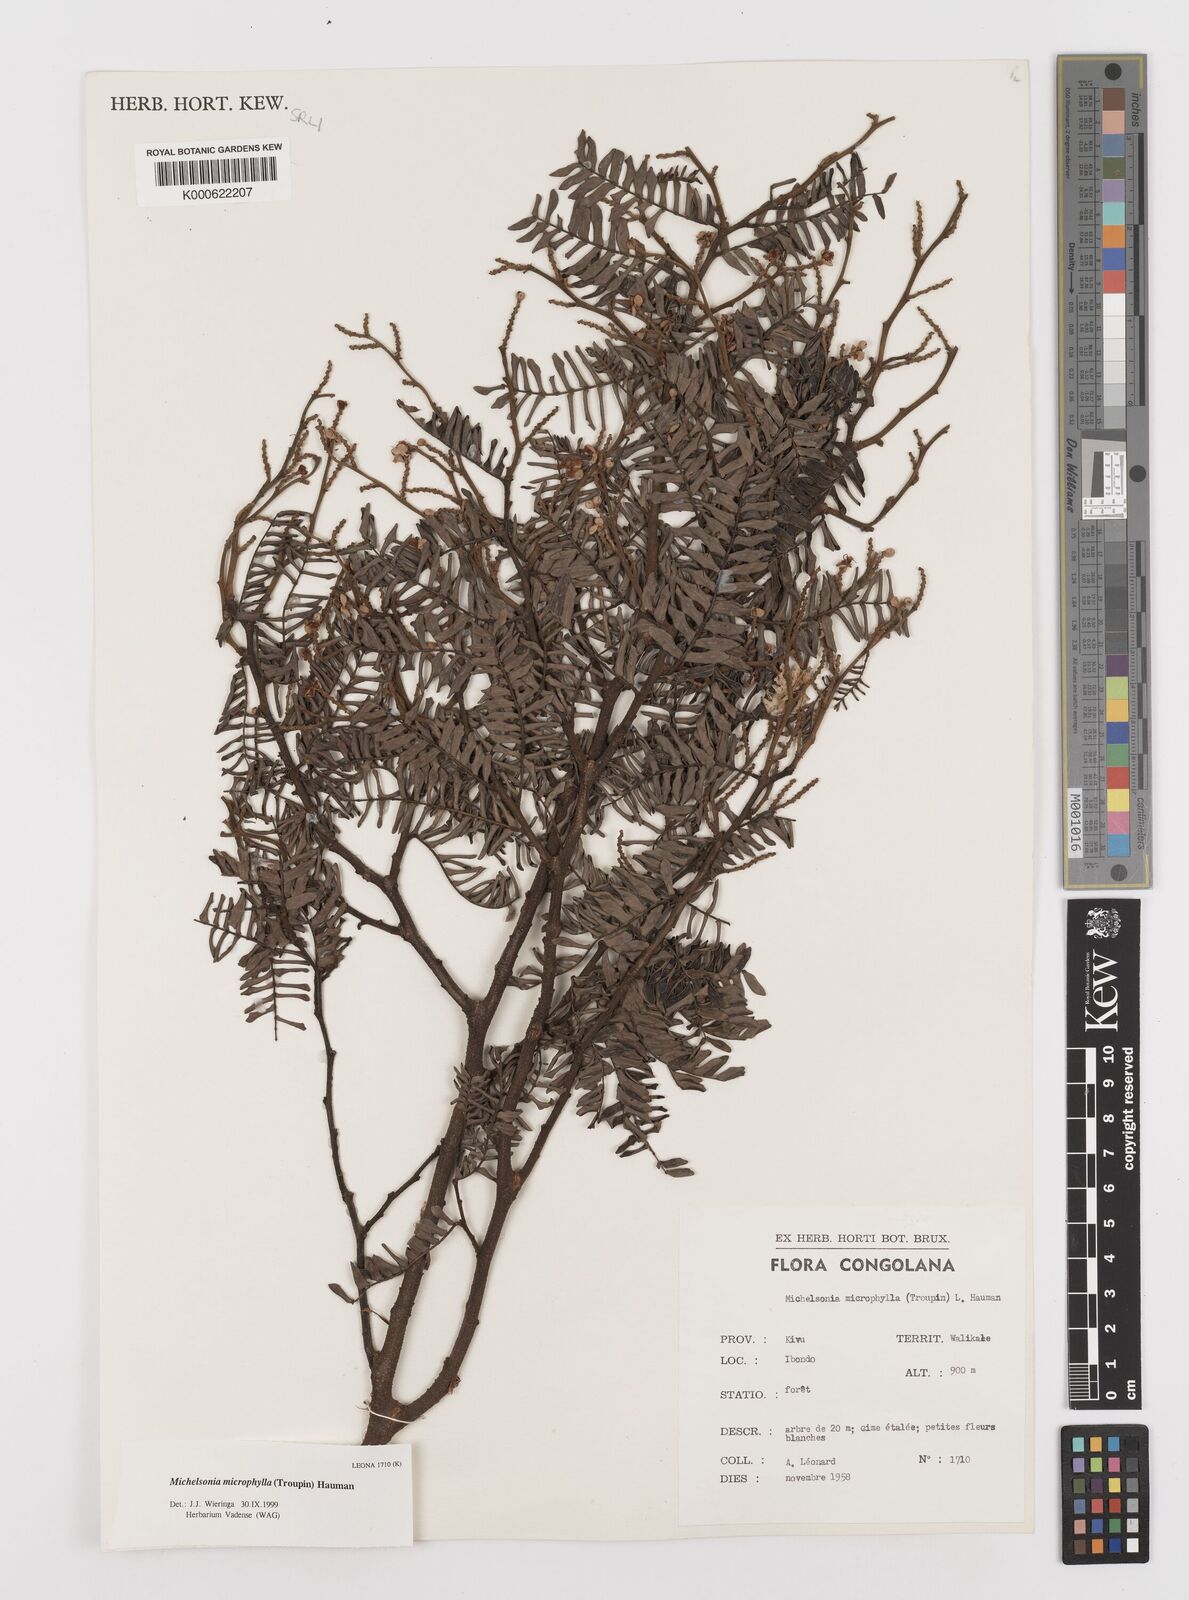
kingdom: Plantae
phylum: Tracheophyta
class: Magnoliopsida
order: Fabales
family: Fabaceae
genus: Michelsonia
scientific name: Michelsonia microphylla
